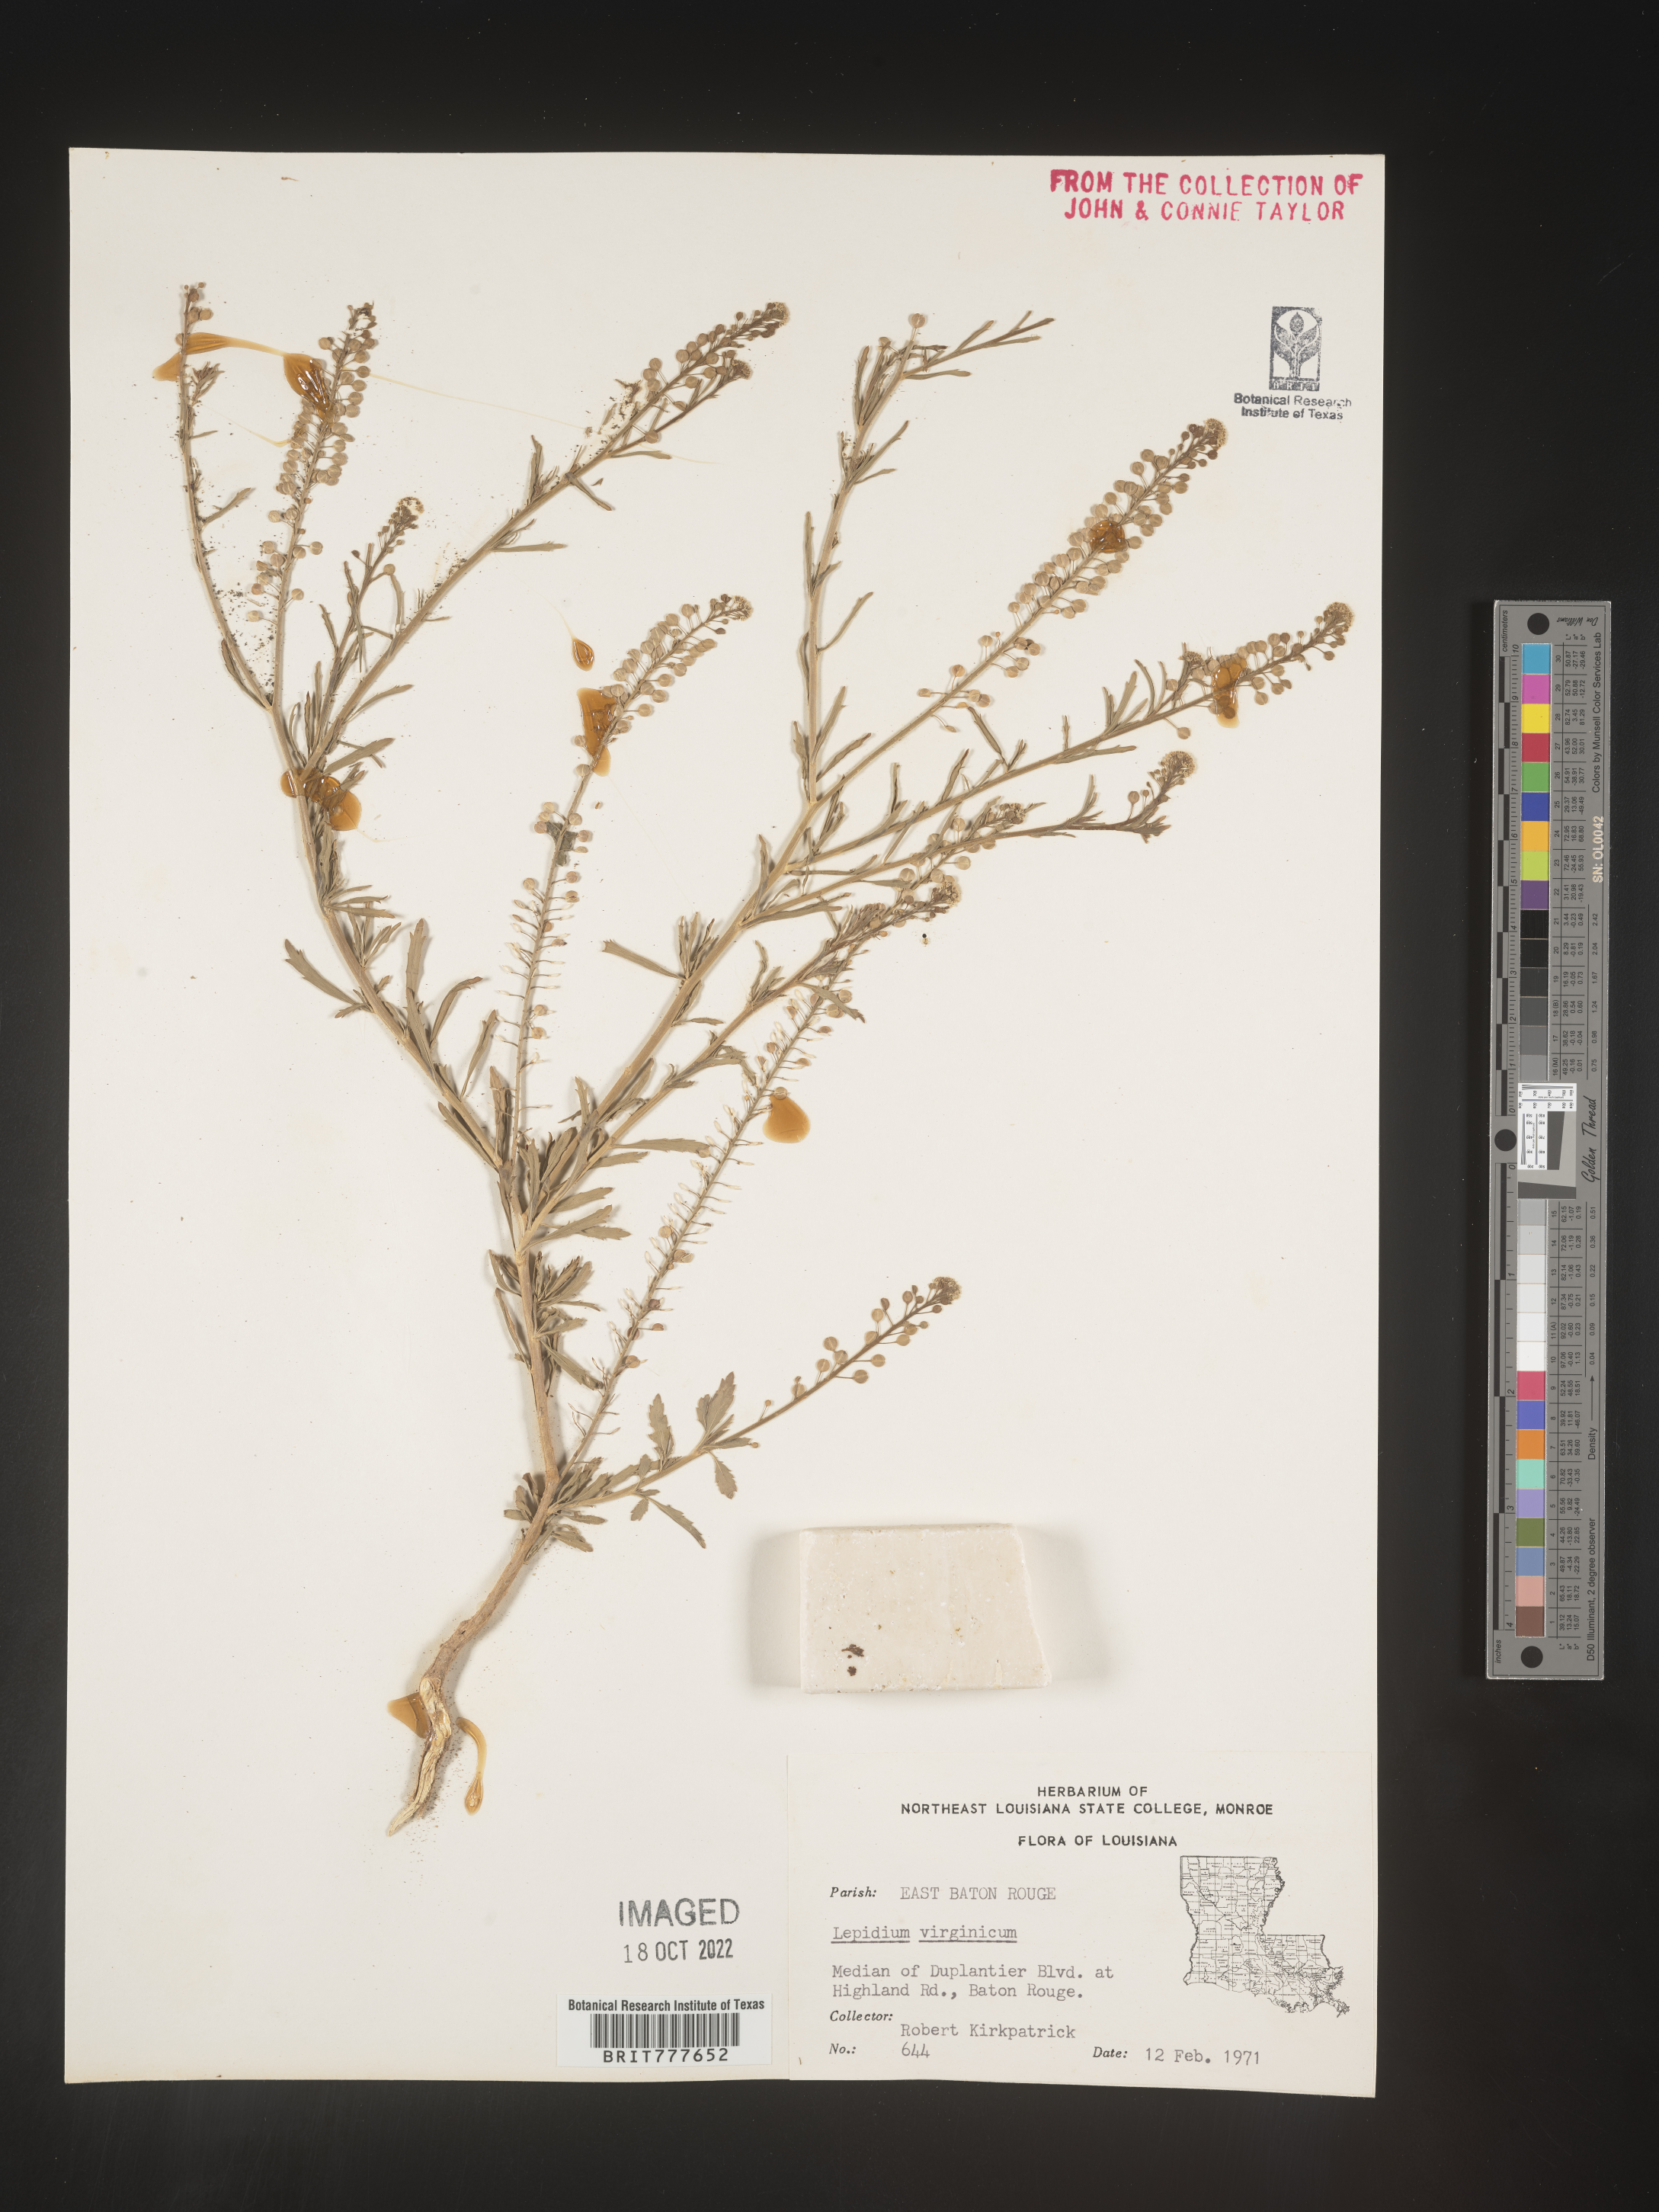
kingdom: Plantae
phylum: Tracheophyta
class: Magnoliopsida
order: Brassicales
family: Brassicaceae
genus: Lepidium
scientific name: Lepidium virginicum
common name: Least pepperwort
